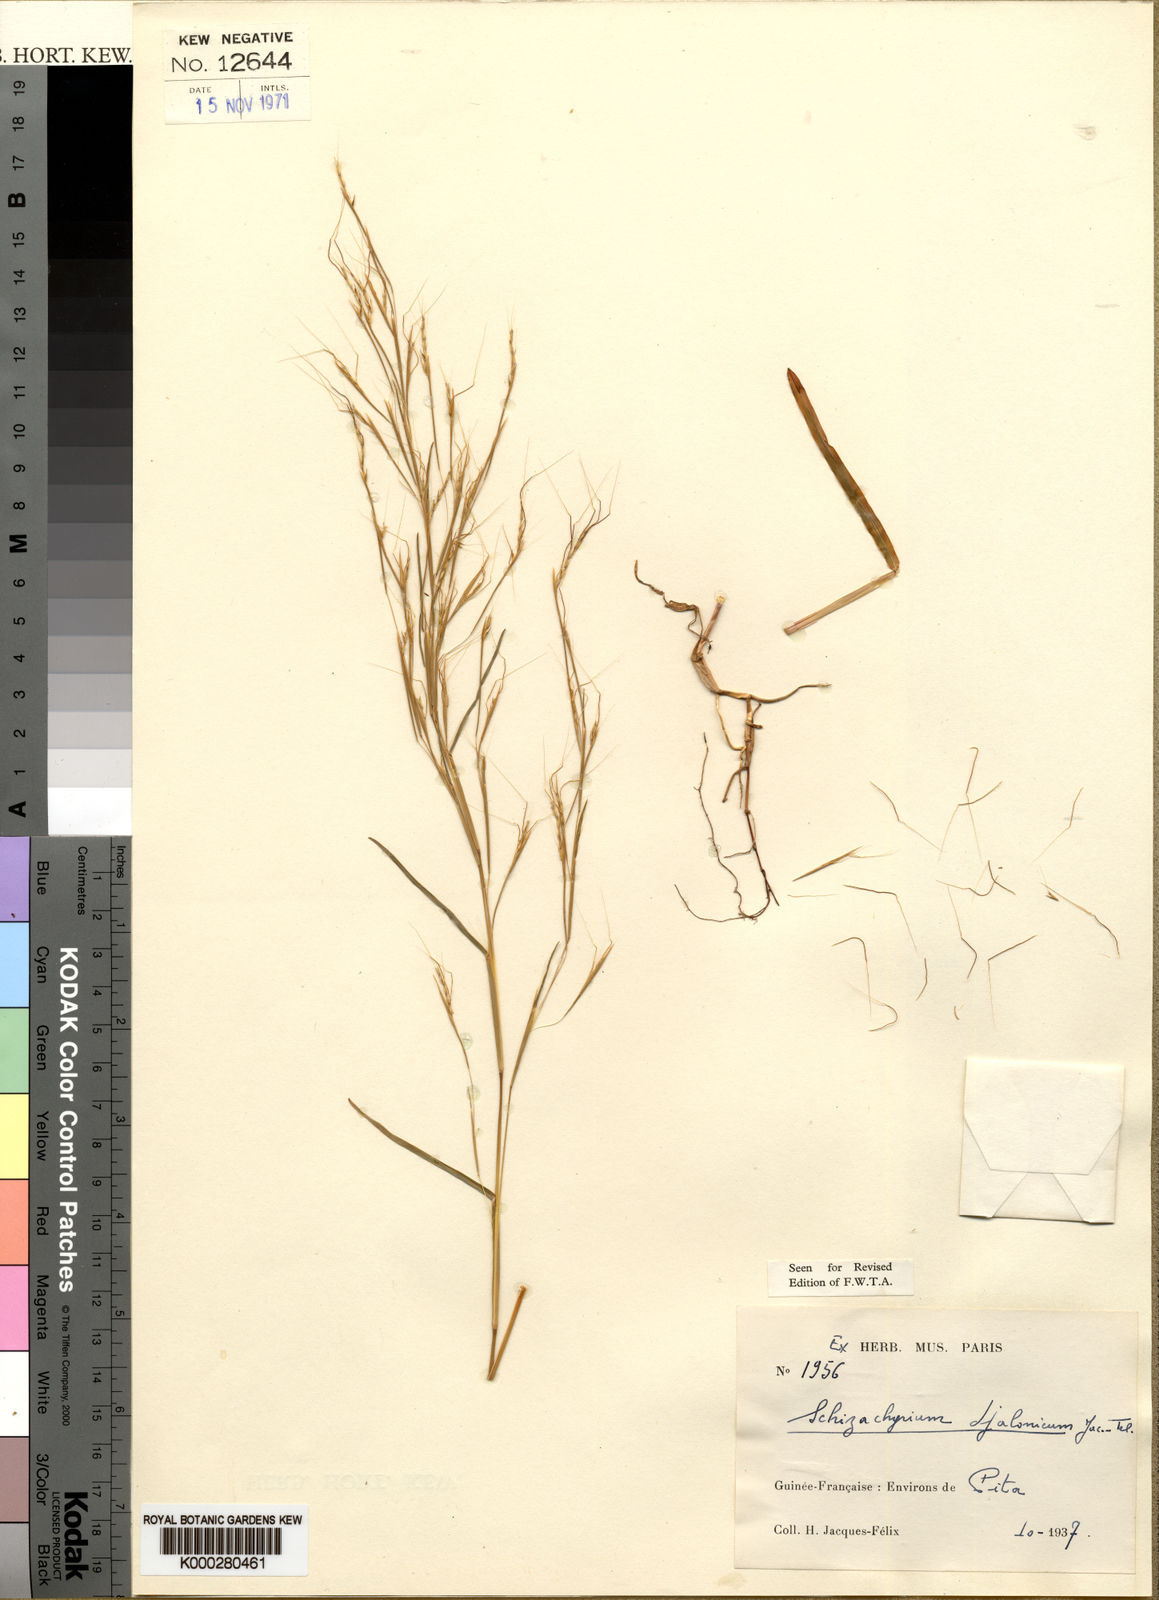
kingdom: Plantae
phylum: Tracheophyta
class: Liliopsida
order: Poales
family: Poaceae
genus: Schizachyrium
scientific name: Schizachyrium
